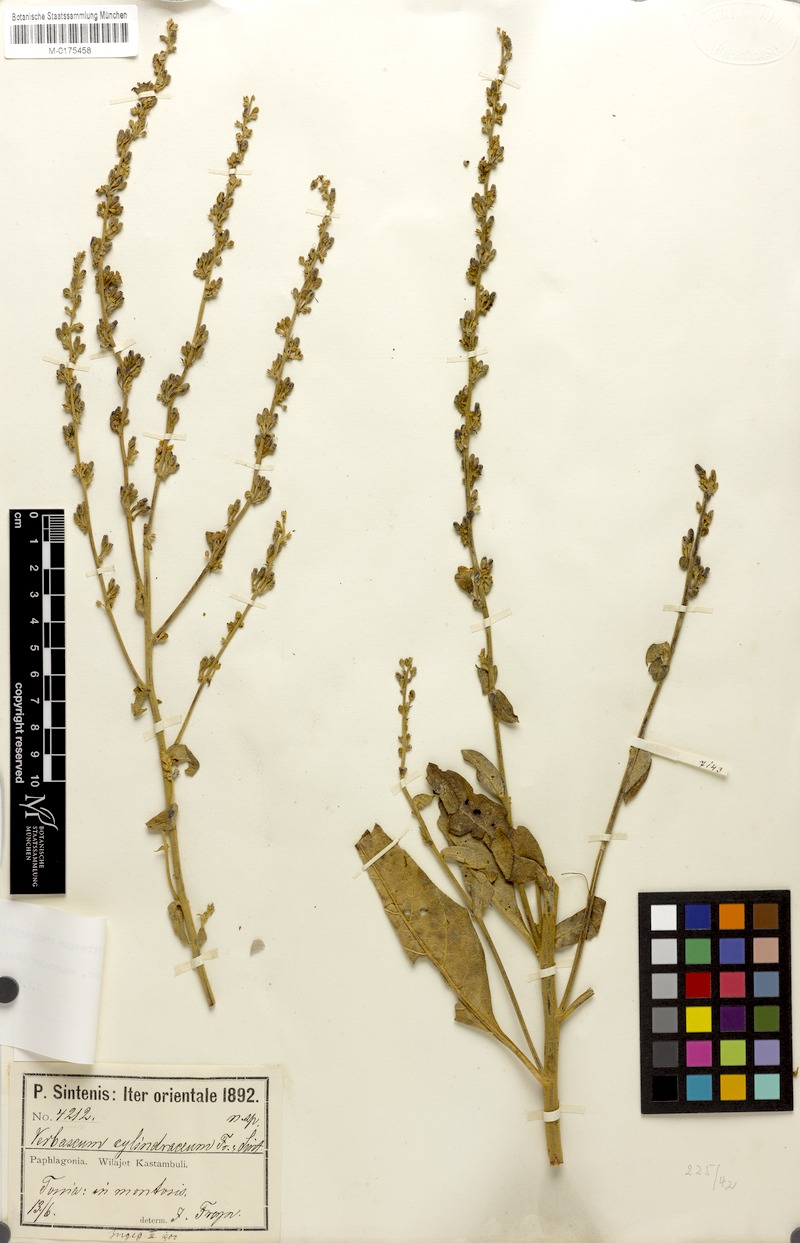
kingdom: Plantae
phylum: Tracheophyta
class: Magnoliopsida
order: Lamiales
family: Scrophulariaceae
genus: Verbascum
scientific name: Verbascum cheiranthifollum
